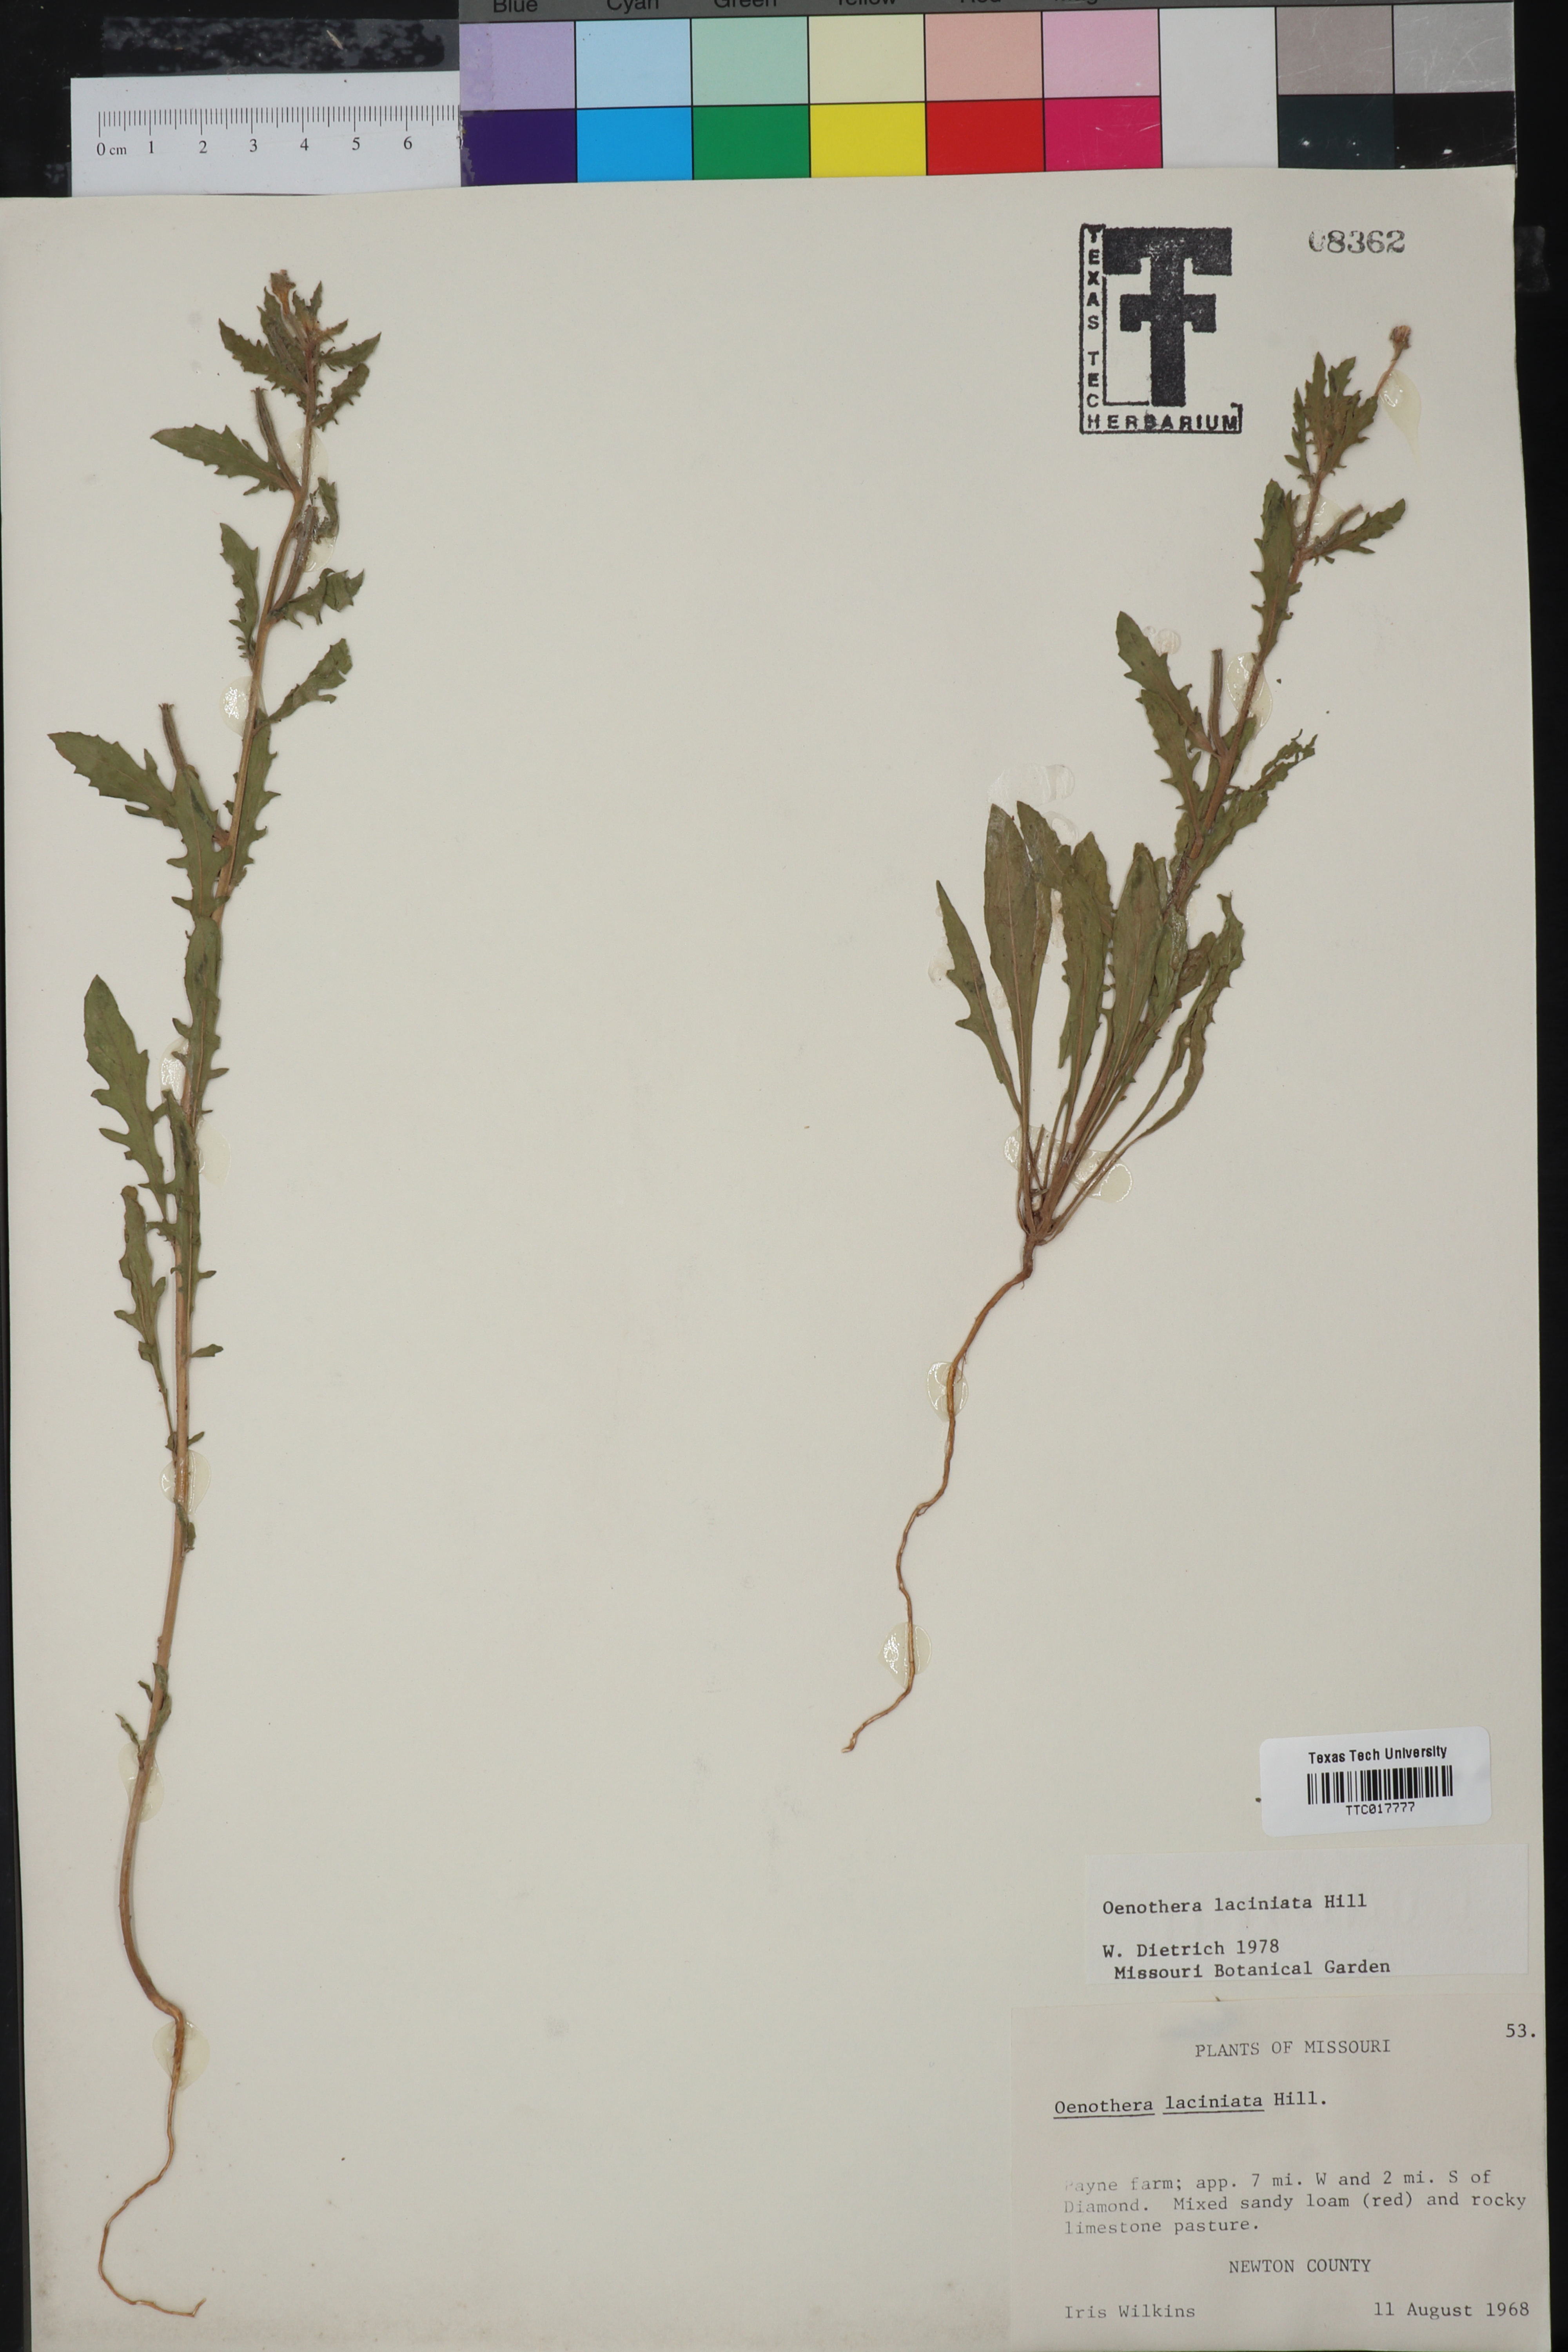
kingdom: Plantae
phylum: Tracheophyta
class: Magnoliopsida
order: Myrtales
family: Onagraceae
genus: Oenothera
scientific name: Oenothera laciniata
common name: Cut-leaved evening-primrose
